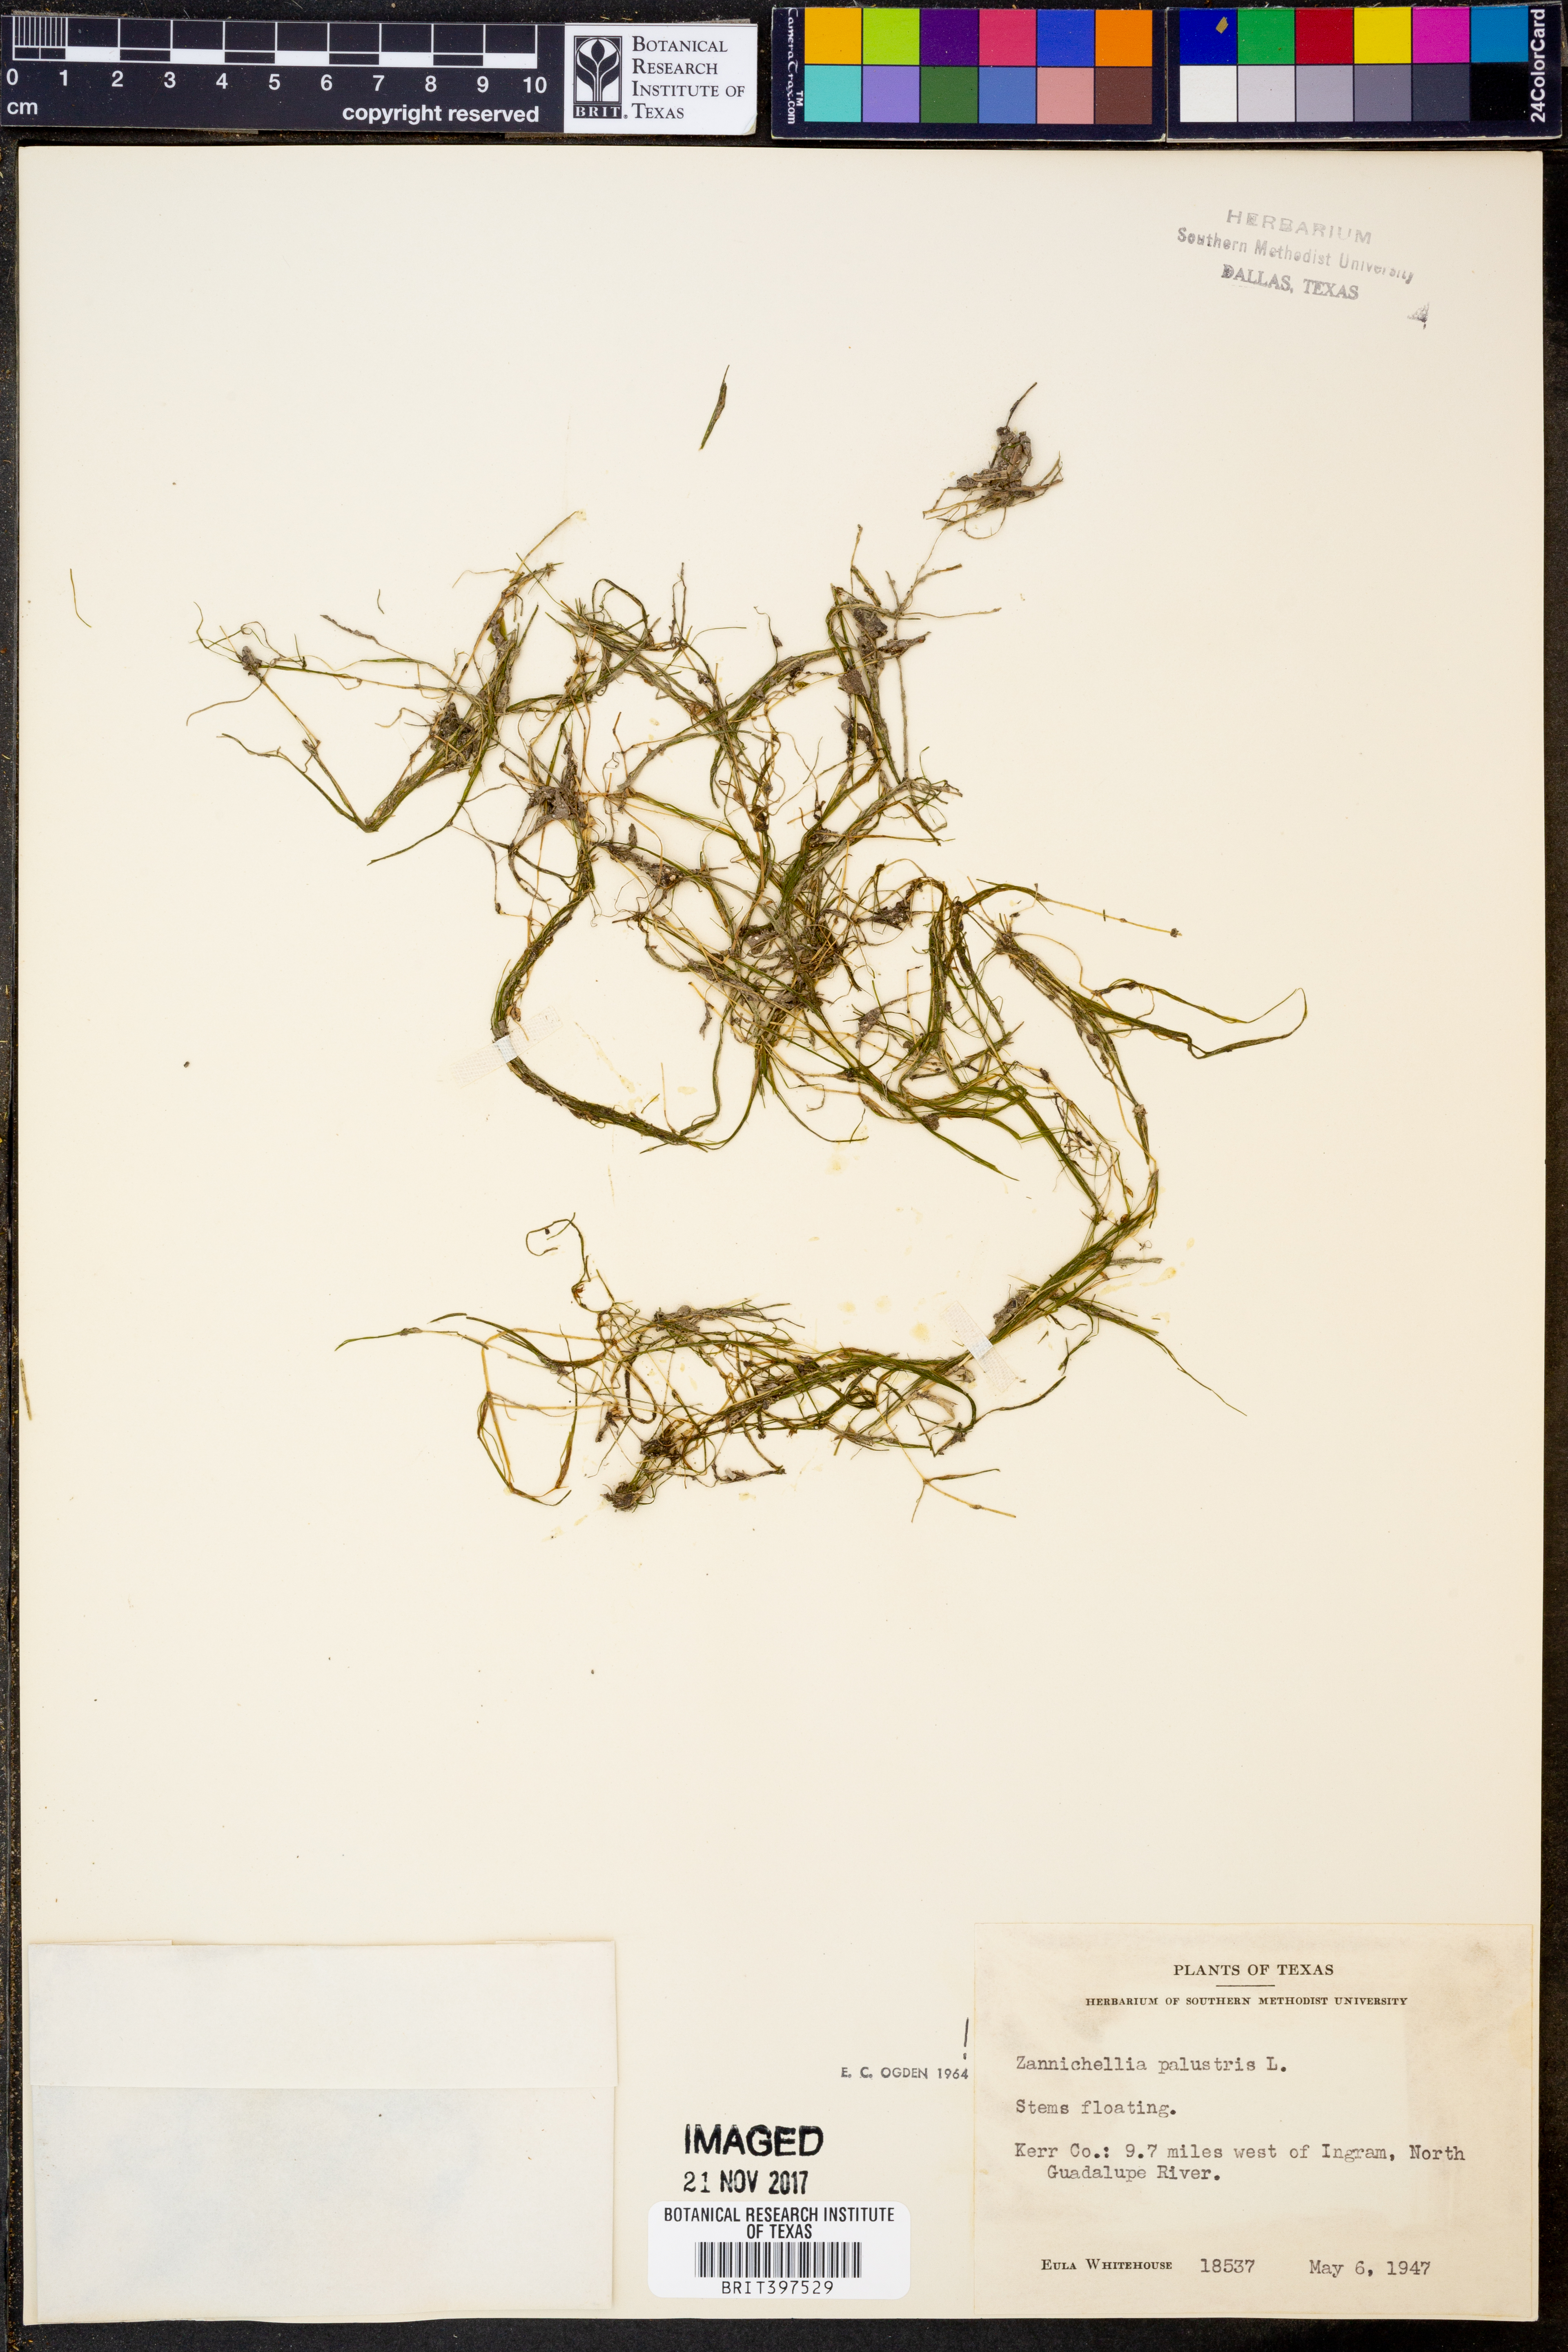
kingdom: Plantae
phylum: Tracheophyta
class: Liliopsida
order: Alismatales
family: Potamogetonaceae
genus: Zannichellia
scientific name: Zannichellia palustris
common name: Horned pondweed
